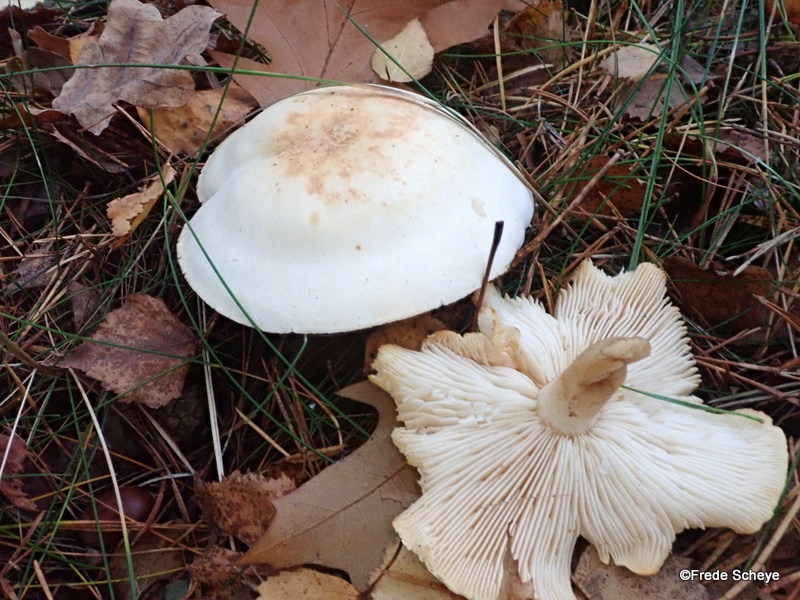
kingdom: Fungi
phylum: Basidiomycota
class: Agaricomycetes
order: Agaricales
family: Tricholomataceae
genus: Tricholoma
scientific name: Tricholoma stiparophyllum
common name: hvid ridderhat
